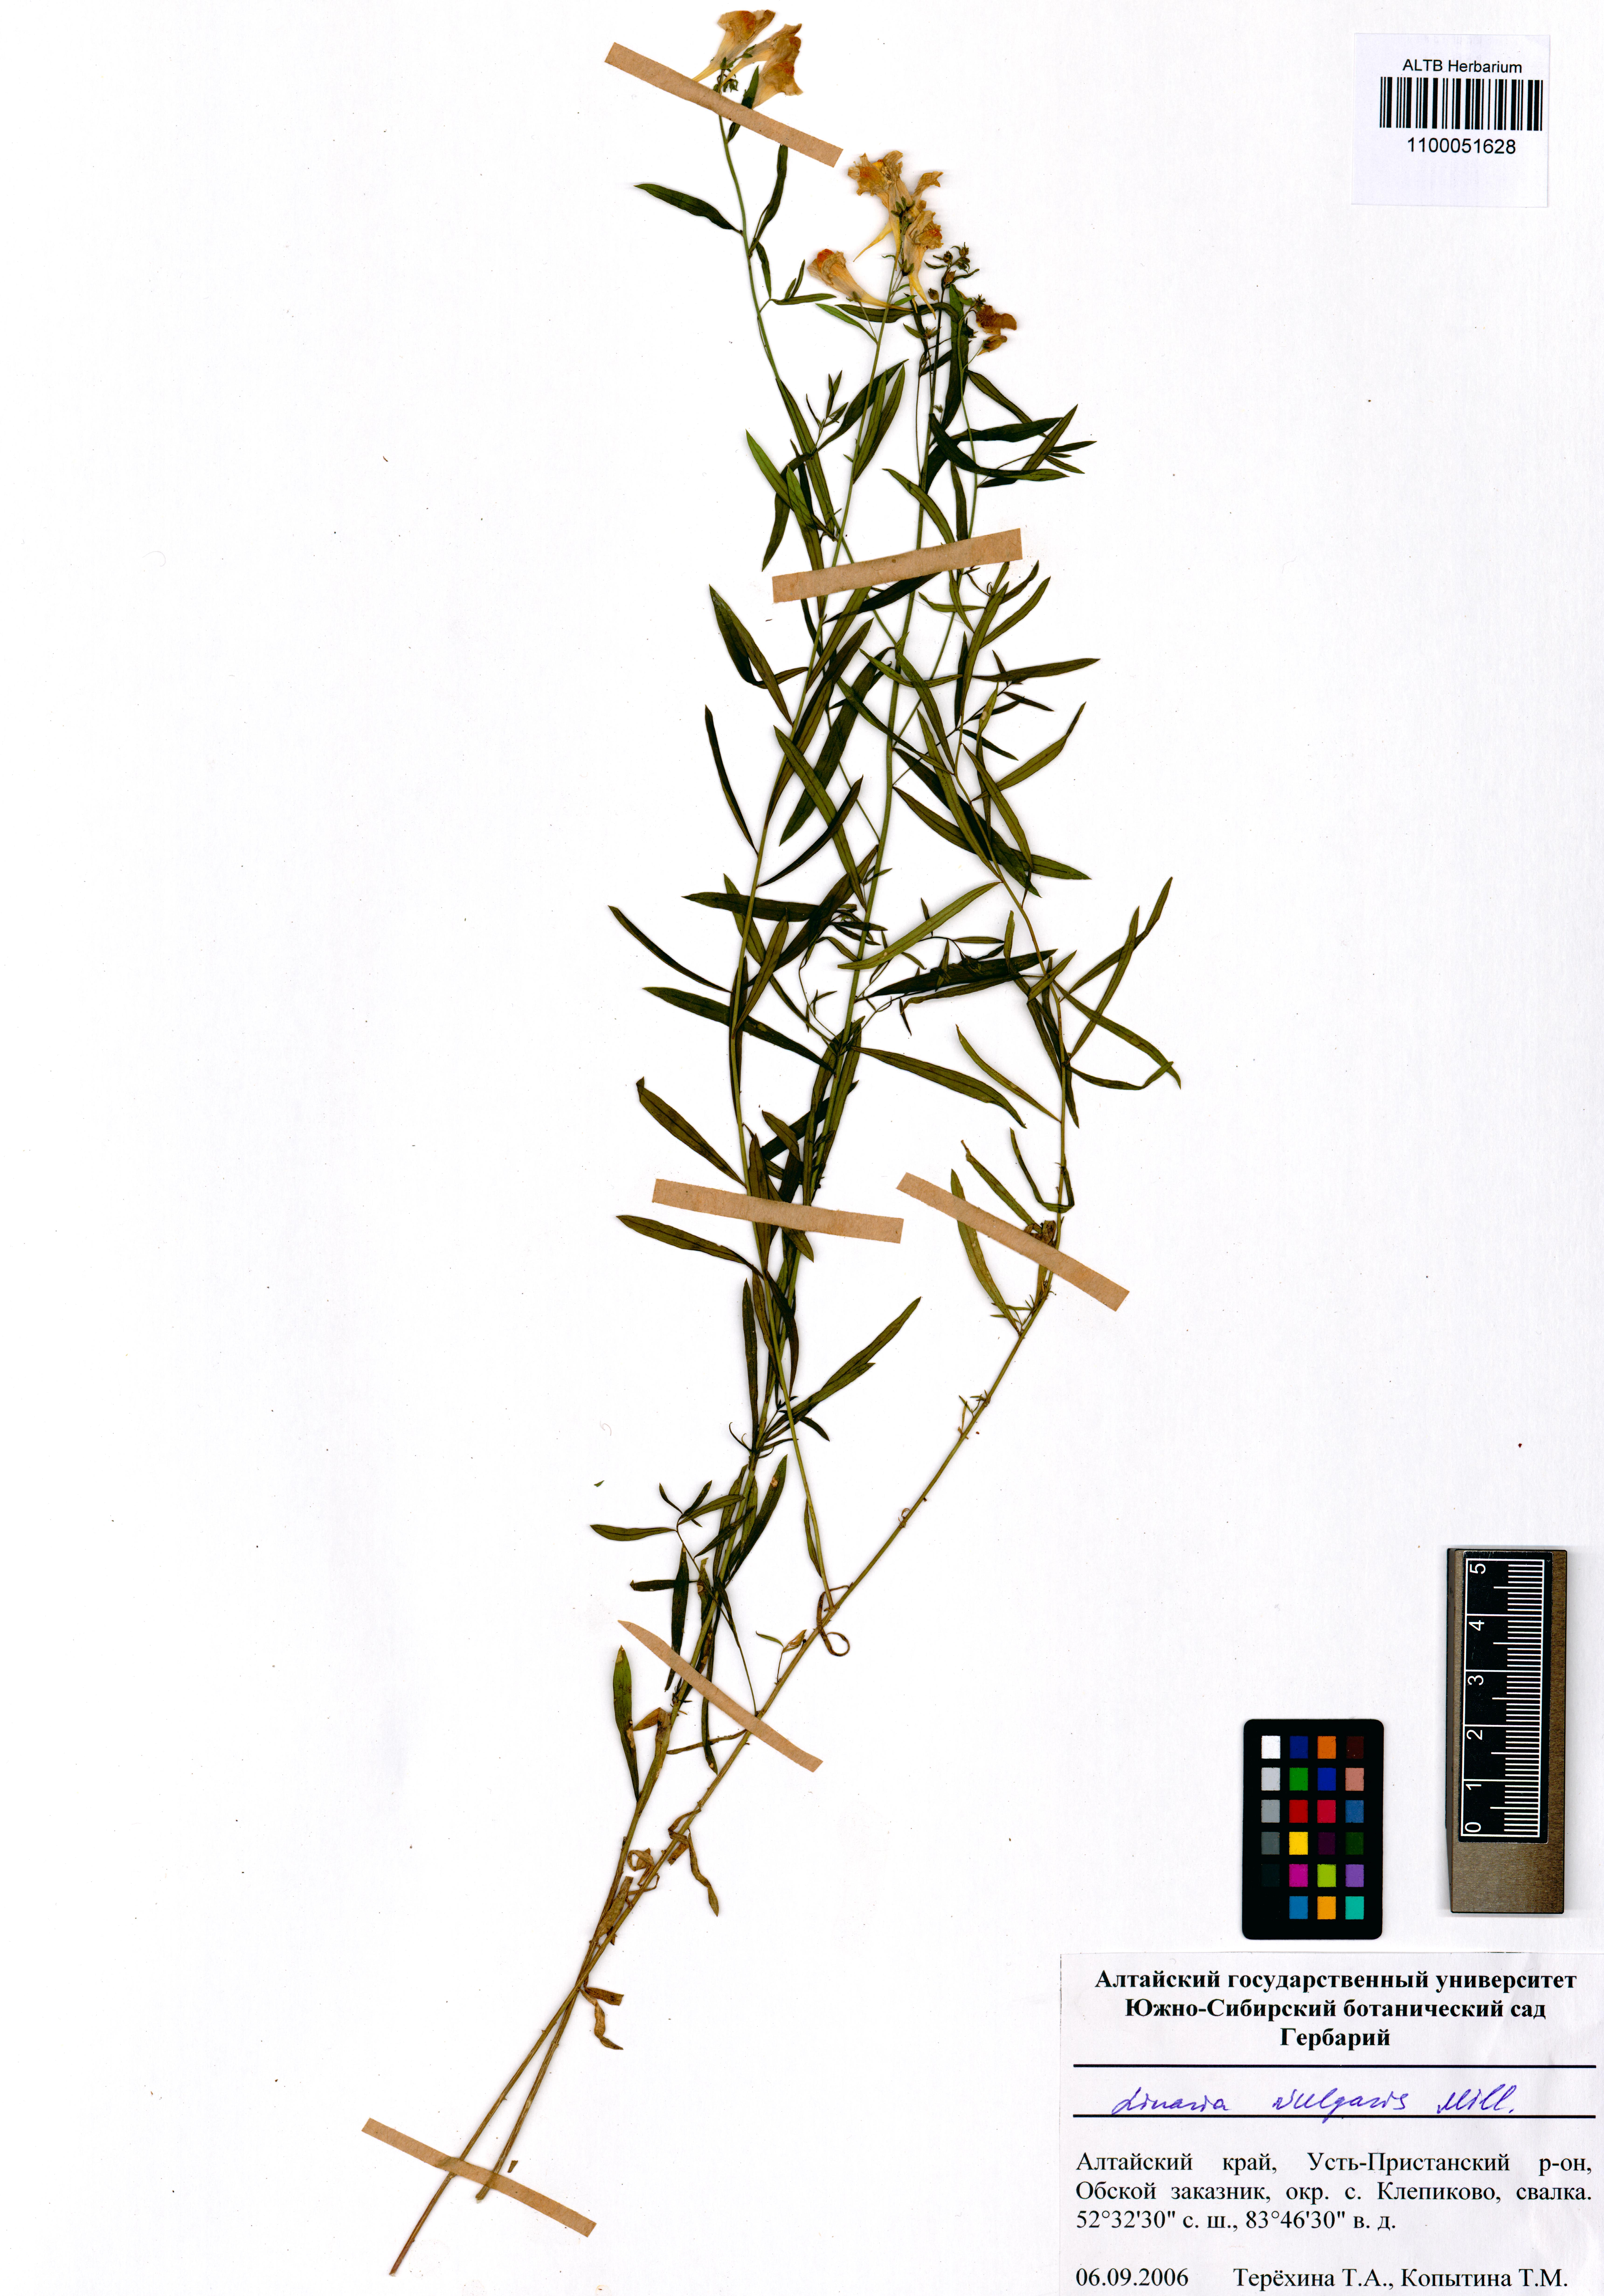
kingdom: Plantae
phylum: Tracheophyta
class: Magnoliopsida
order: Lamiales
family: Orobanchaceae
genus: Euphrasia
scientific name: Euphrasia hirtella
